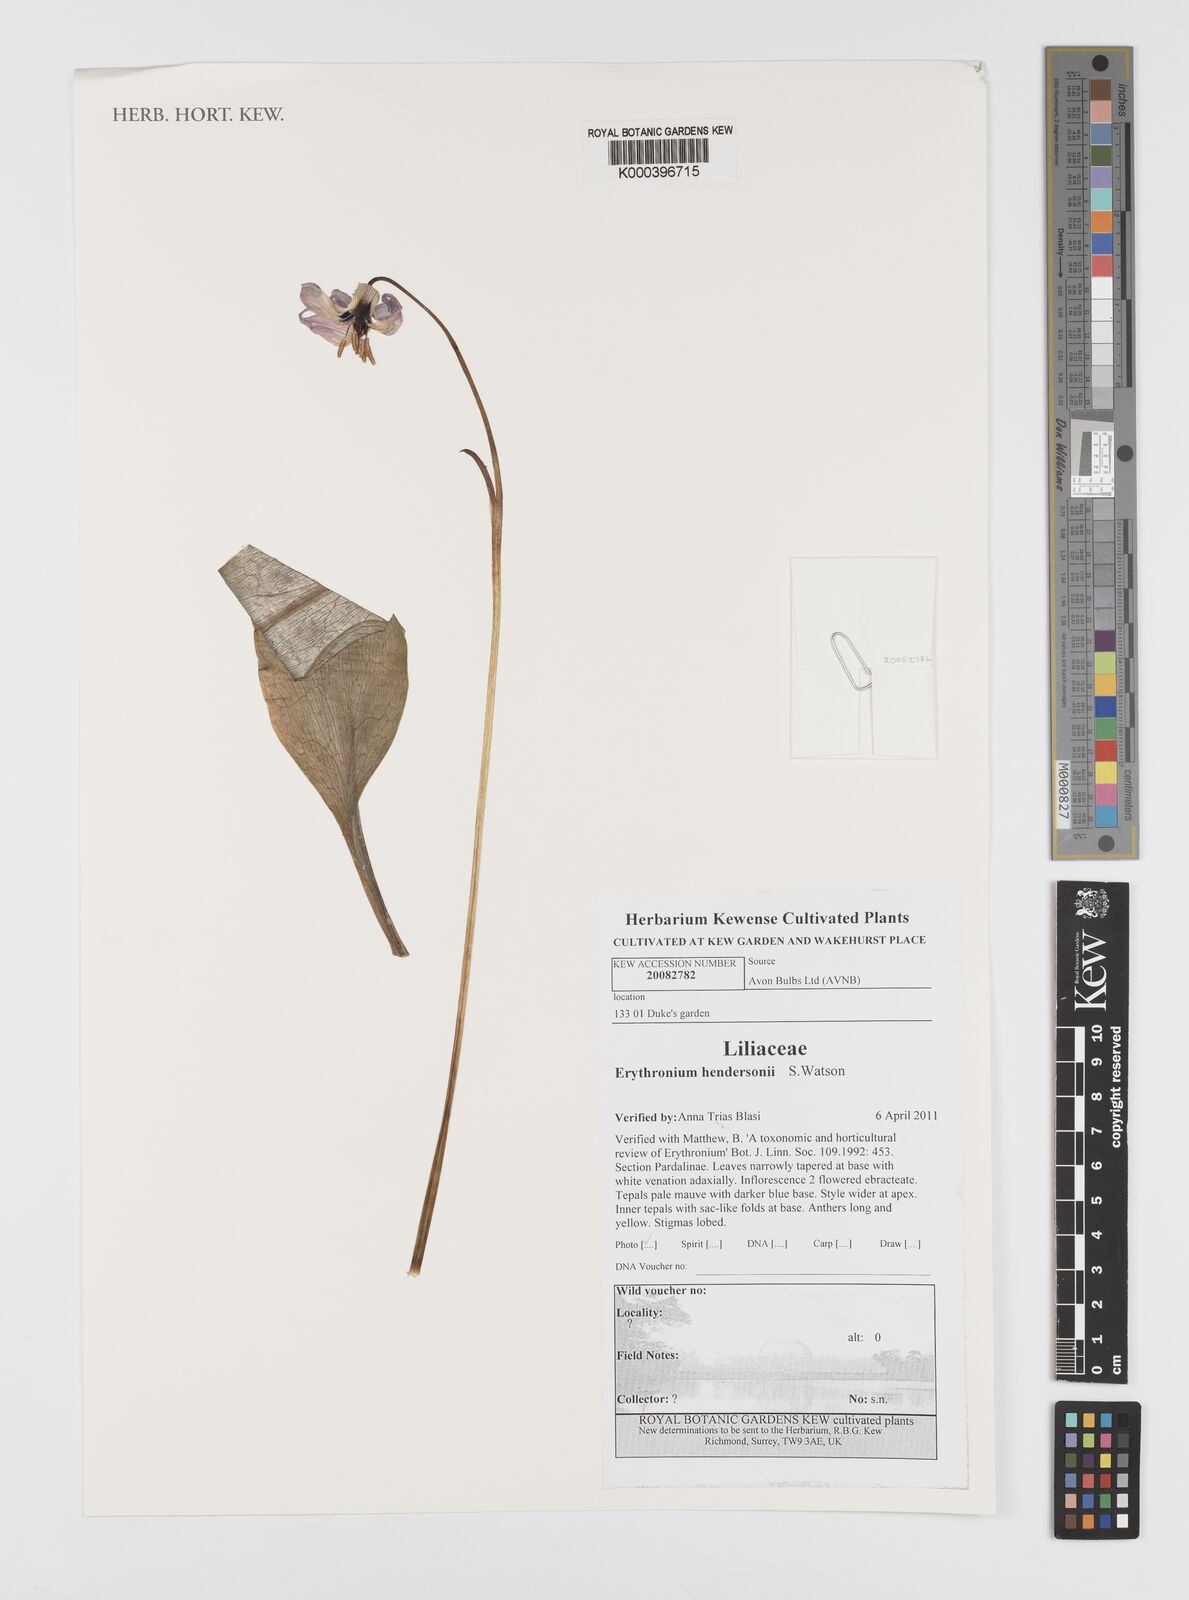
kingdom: Plantae
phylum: Tracheophyta
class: Liliopsida
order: Liliales
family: Liliaceae
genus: Erythronium
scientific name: Erythronium hendersonii
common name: Henderson's fawn-lily
